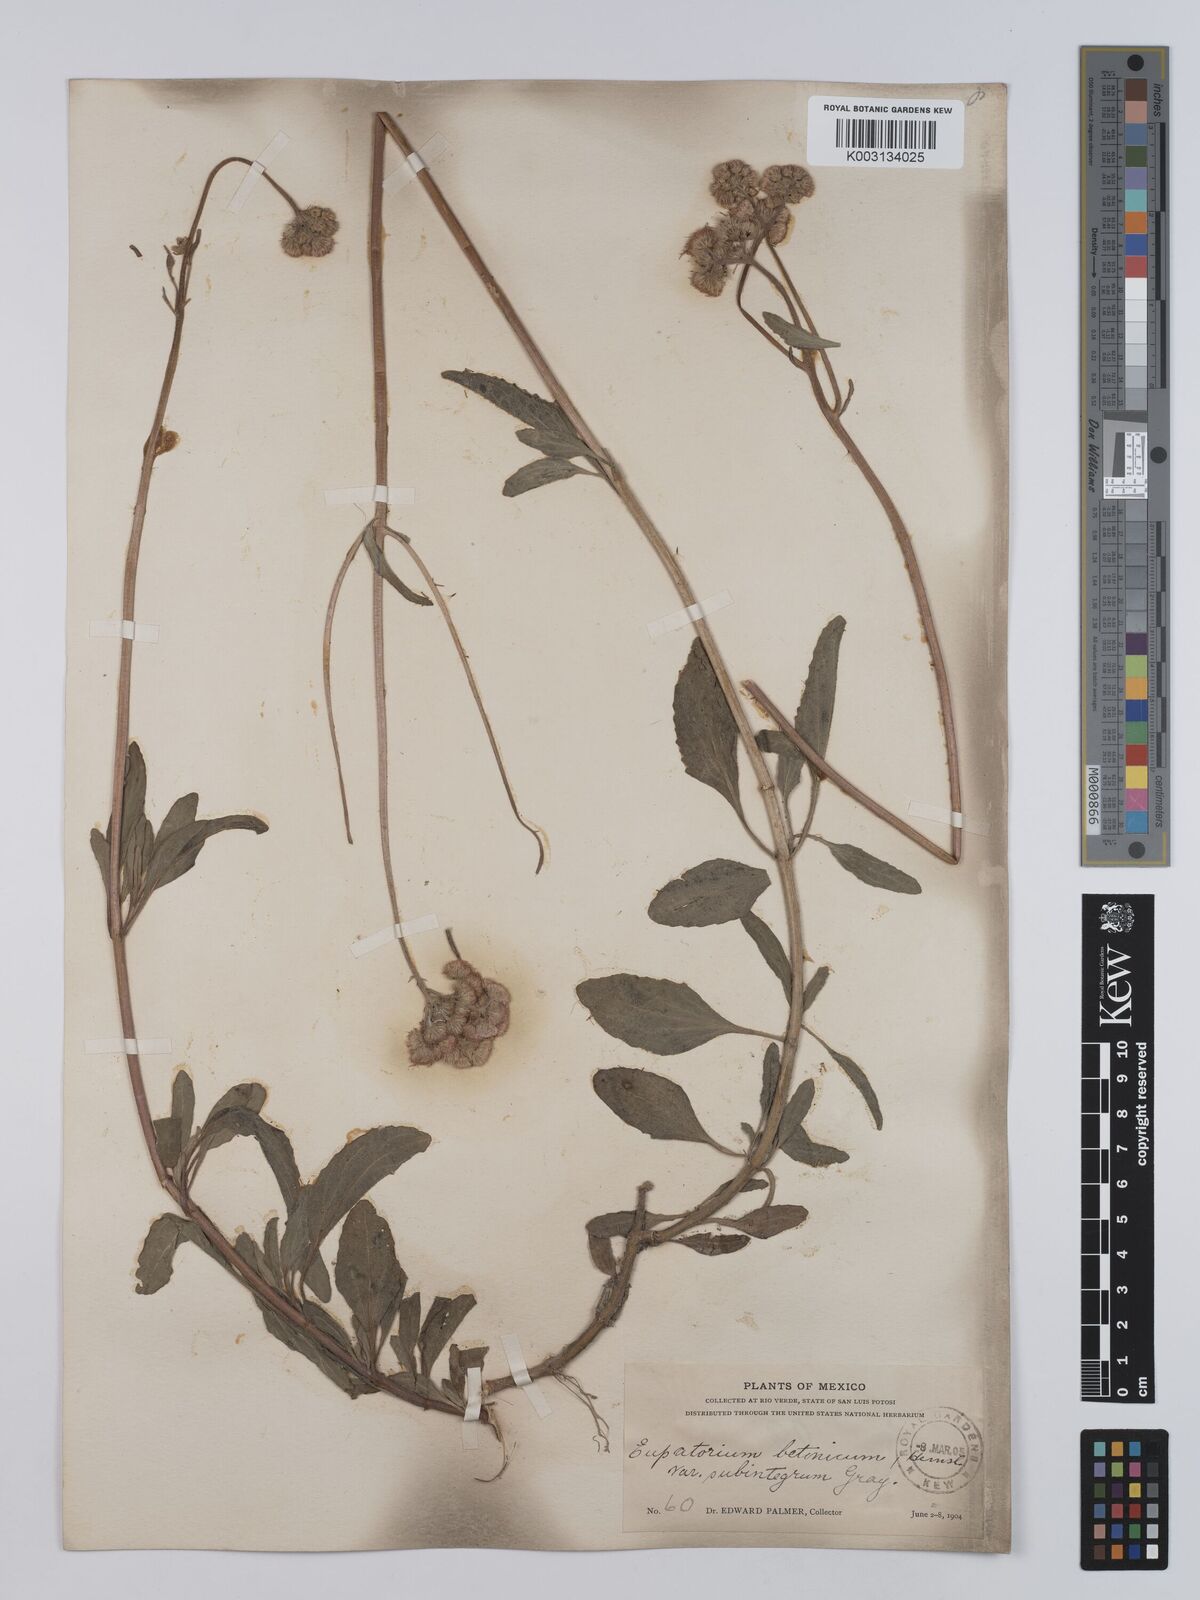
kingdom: Plantae
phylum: Tracheophyta
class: Magnoliopsida
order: Asterales
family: Asteraceae
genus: Conoclinium
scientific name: Conoclinium betonicifolium
